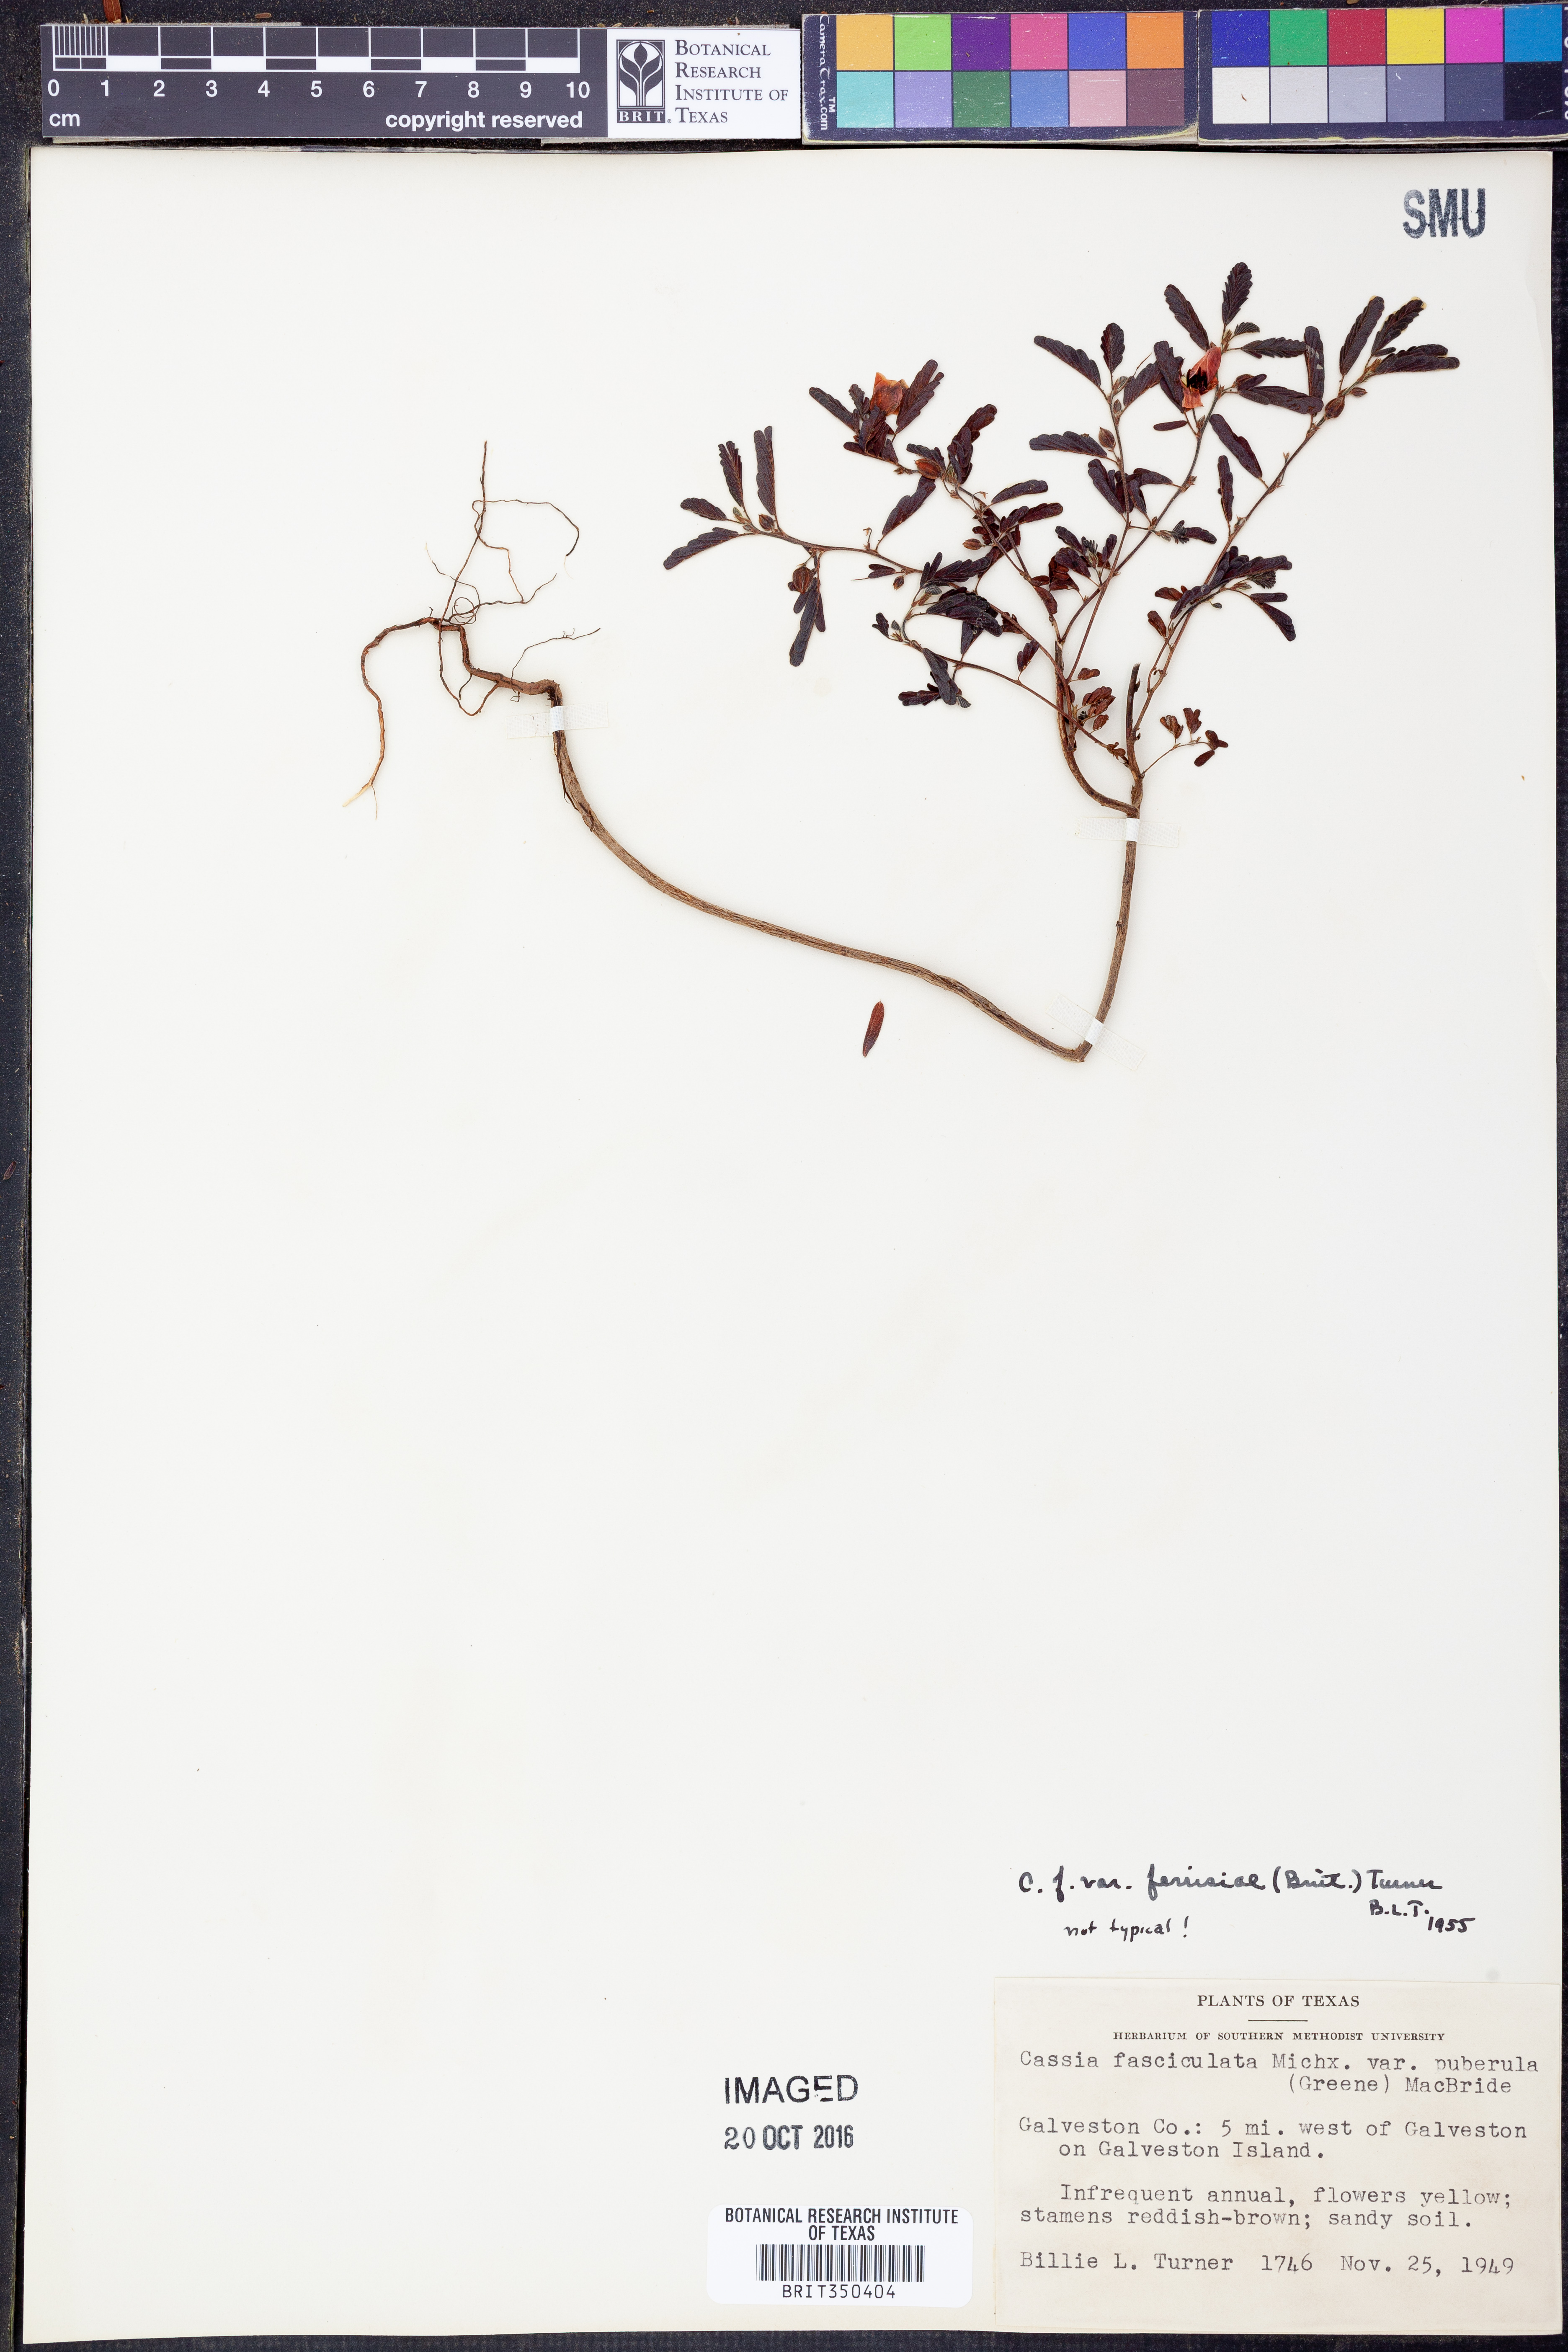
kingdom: Plantae
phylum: Tracheophyta
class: Magnoliopsida
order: Fabales
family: Fabaceae
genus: Chamaecrista
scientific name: Chamaecrista fasciculata
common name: Golden cassia
